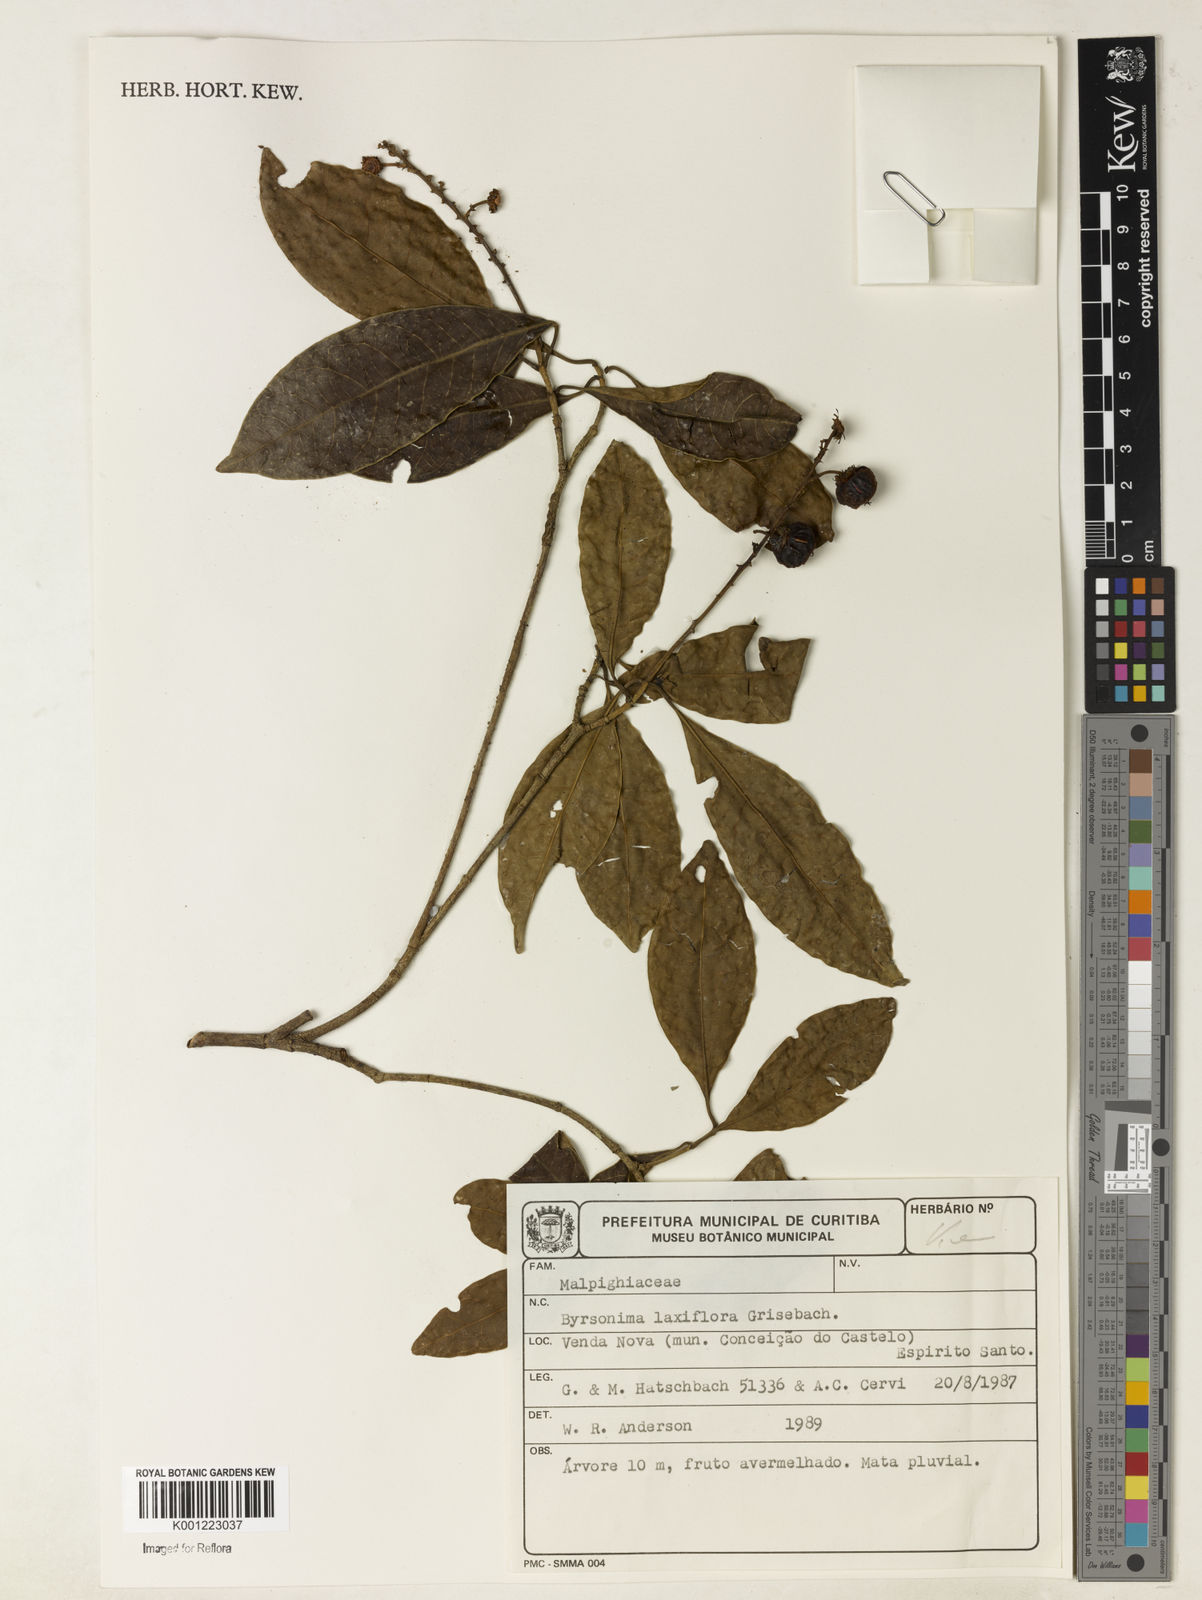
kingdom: Plantae
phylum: Tracheophyta
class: Magnoliopsida
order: Malpighiales
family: Malpighiaceae
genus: Byrsonima
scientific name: Byrsonima laxiflora
